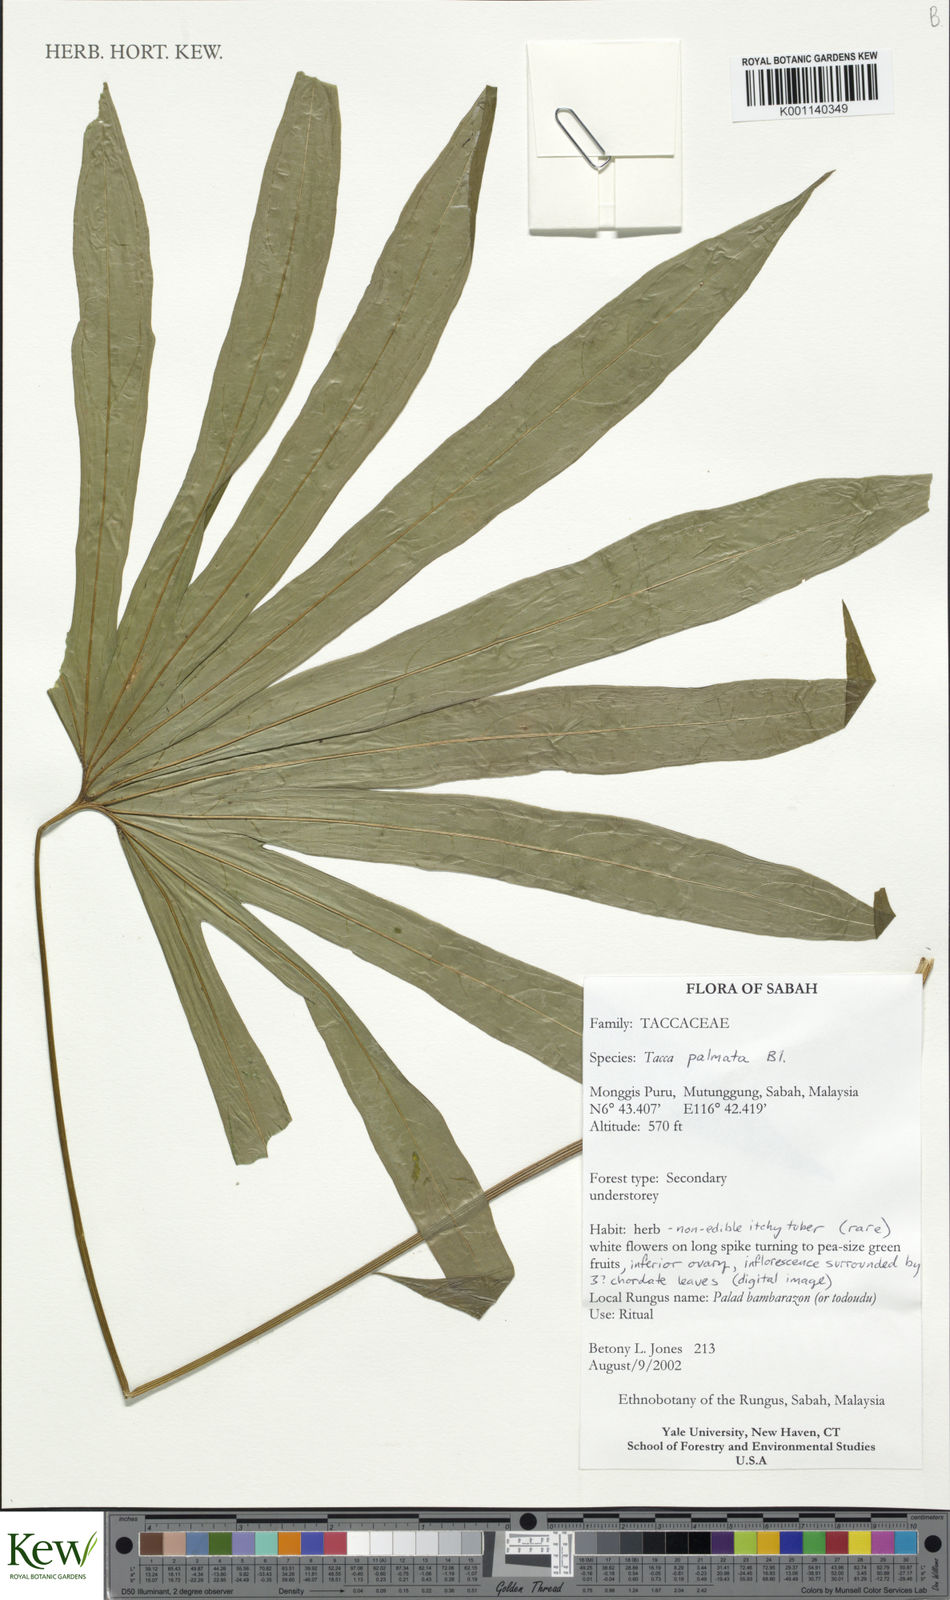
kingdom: Plantae
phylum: Tracheophyta
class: Liliopsida
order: Dioscoreales
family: Dioscoreaceae
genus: Tacca
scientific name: Tacca palmata
